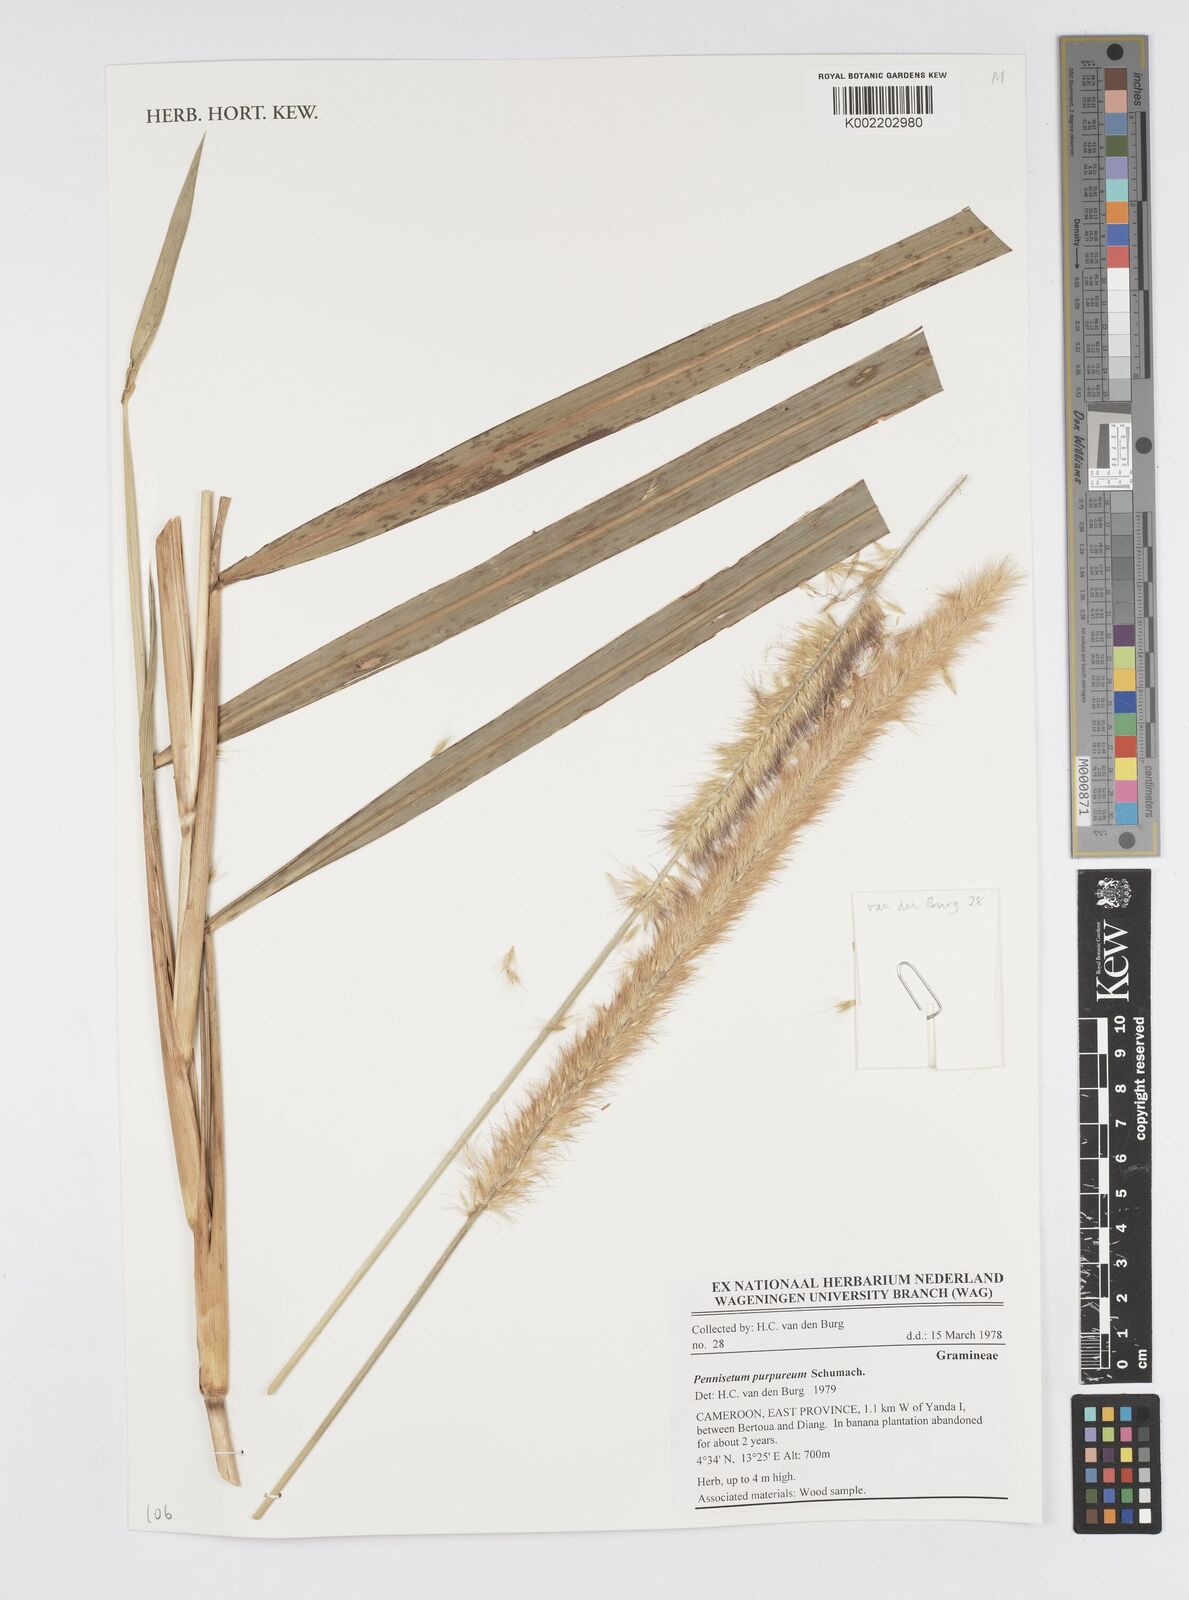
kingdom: Plantae
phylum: Tracheophyta
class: Liliopsida
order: Poales
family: Poaceae
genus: Cenchrus
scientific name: Cenchrus purpureus
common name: Elephant grass
